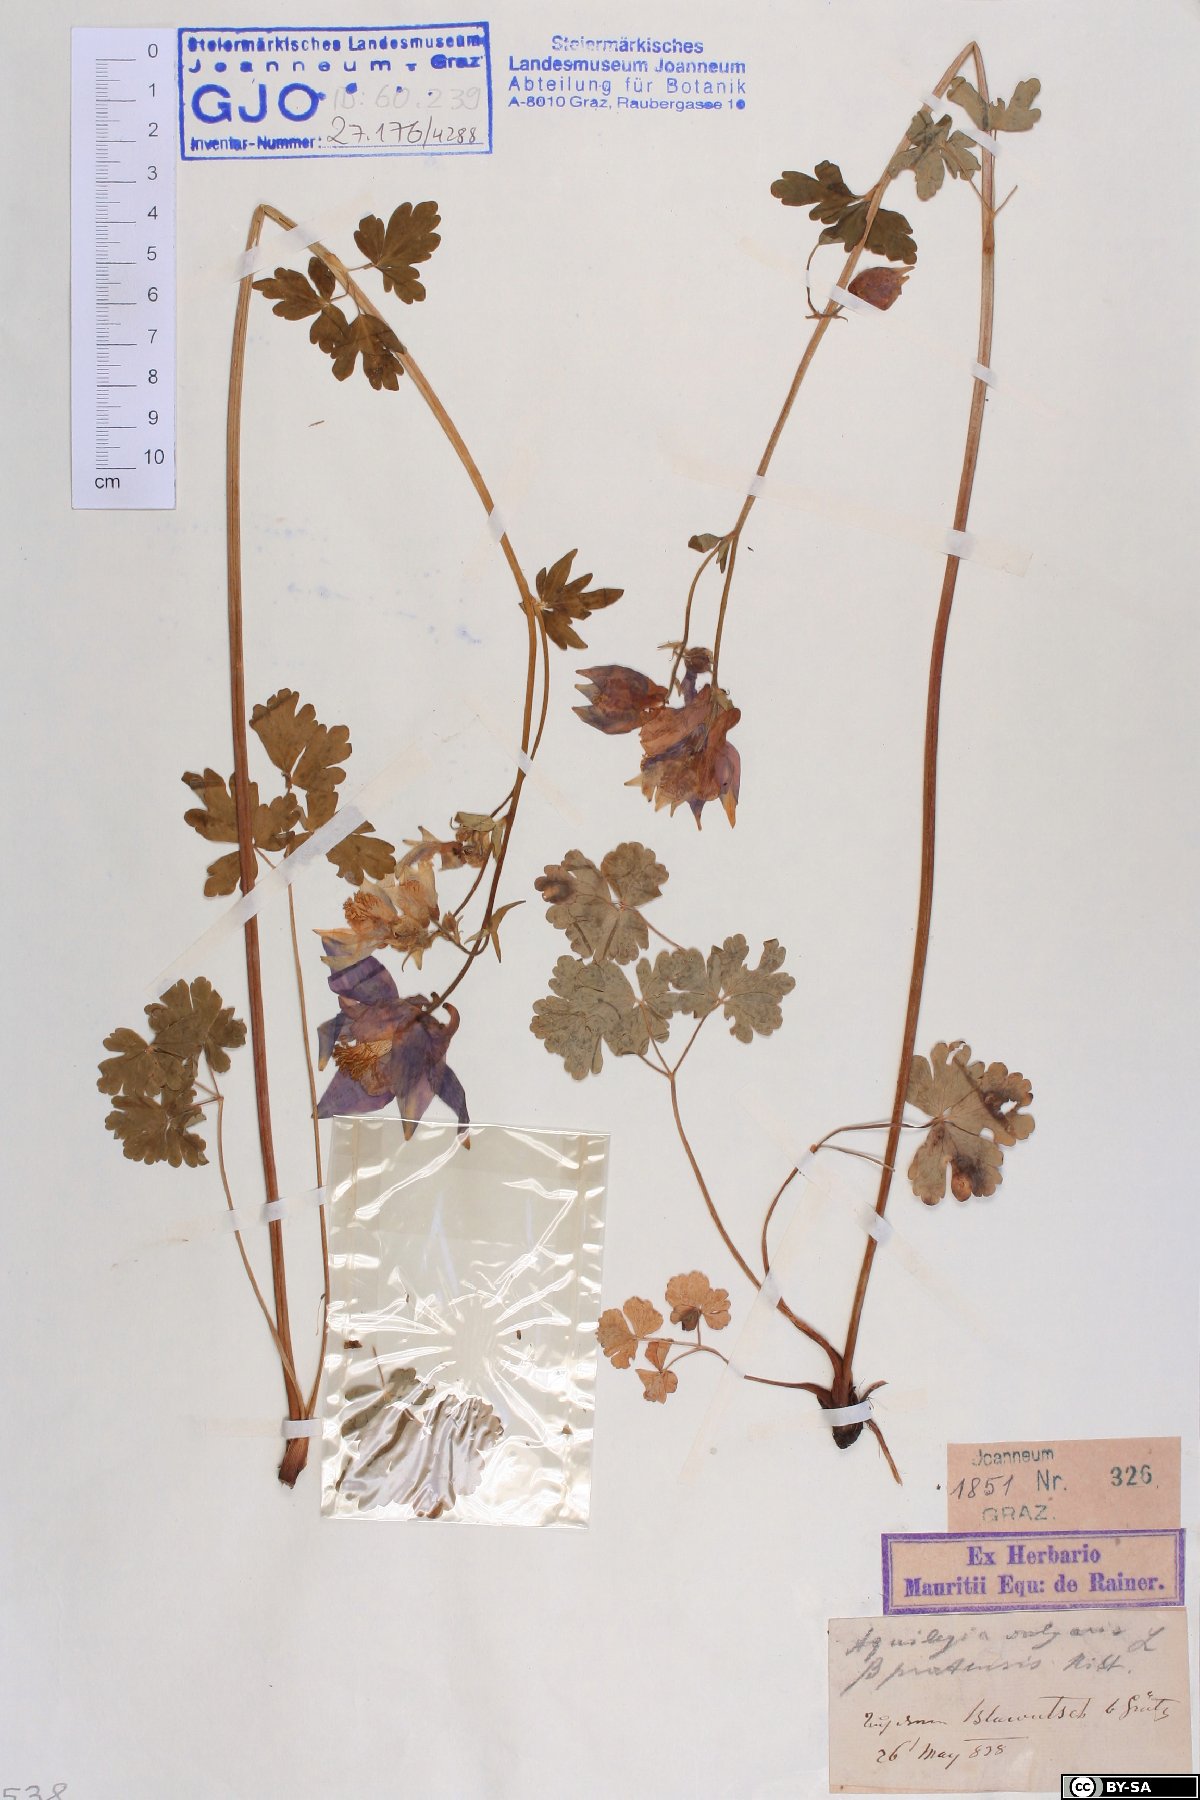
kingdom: Plantae
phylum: Tracheophyta
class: Magnoliopsida
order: Ranunculales
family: Ranunculaceae
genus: Aquilegia
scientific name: Aquilegia vulgaris
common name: Columbine
